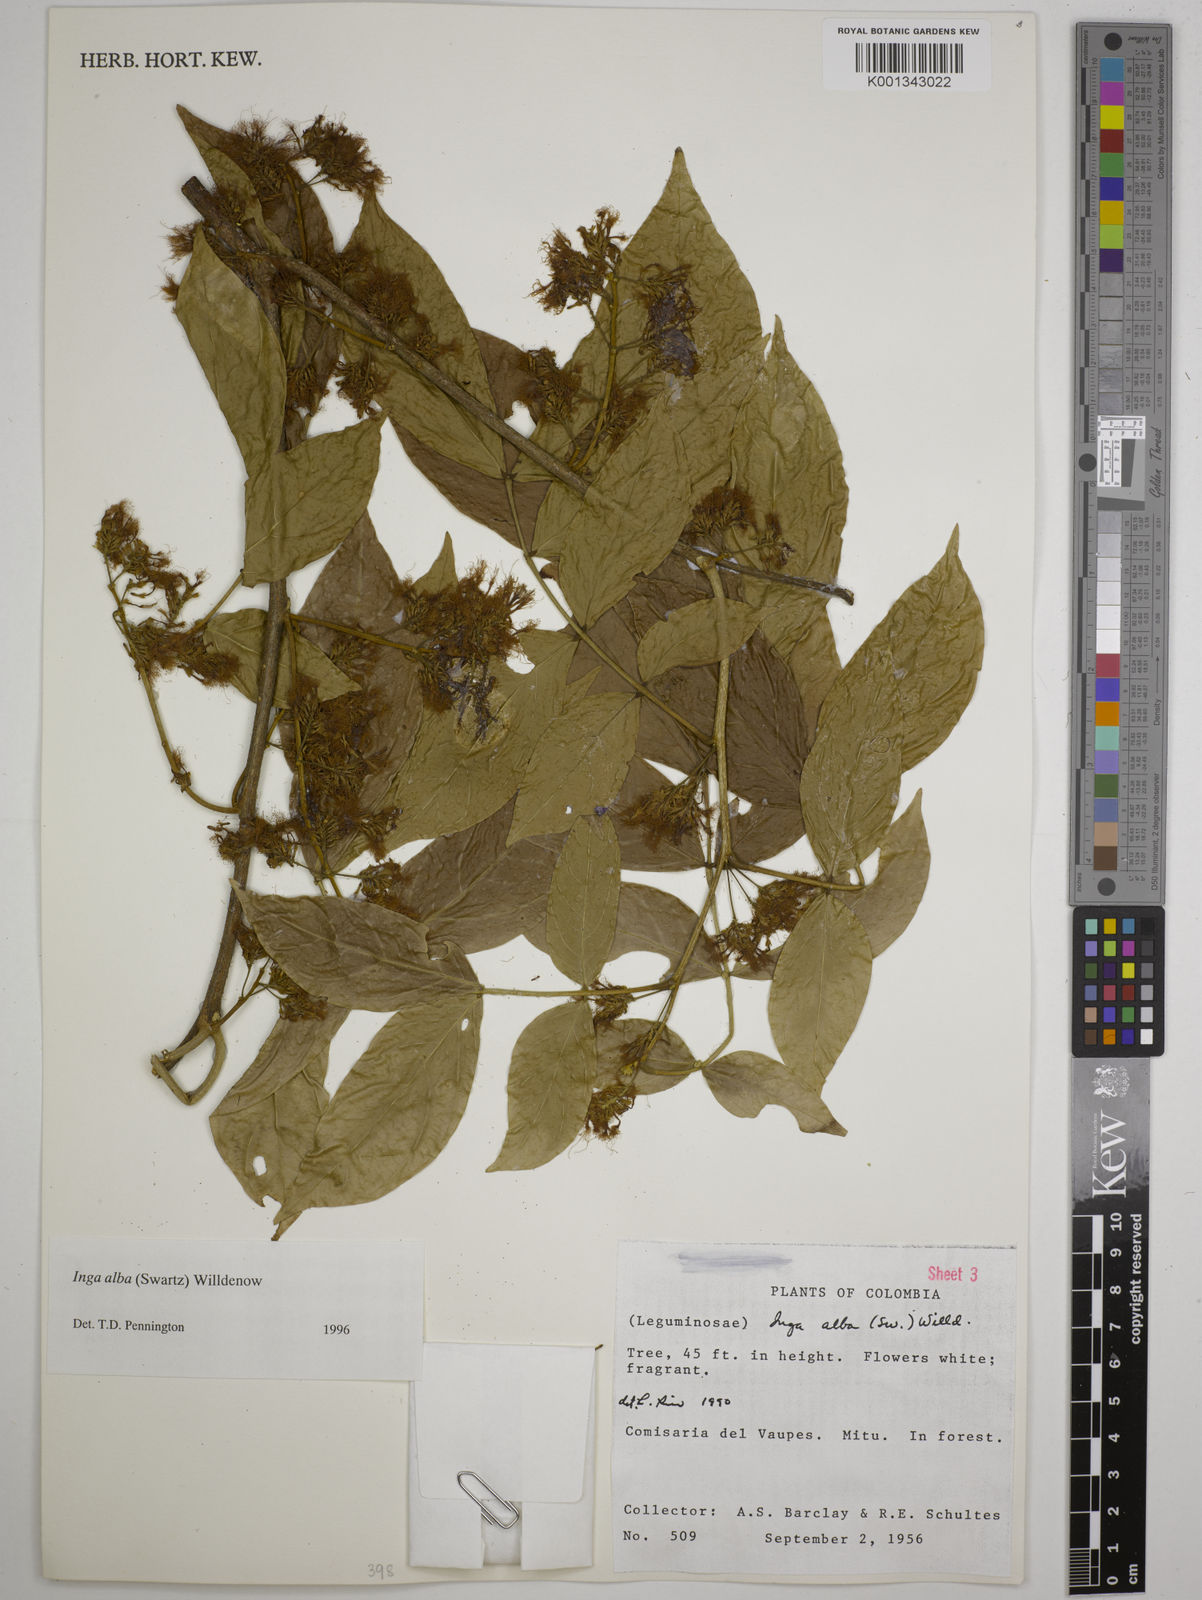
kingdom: Plantae
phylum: Tracheophyta
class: Magnoliopsida
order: Fabales
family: Fabaceae
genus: Inga
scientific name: Inga alba
